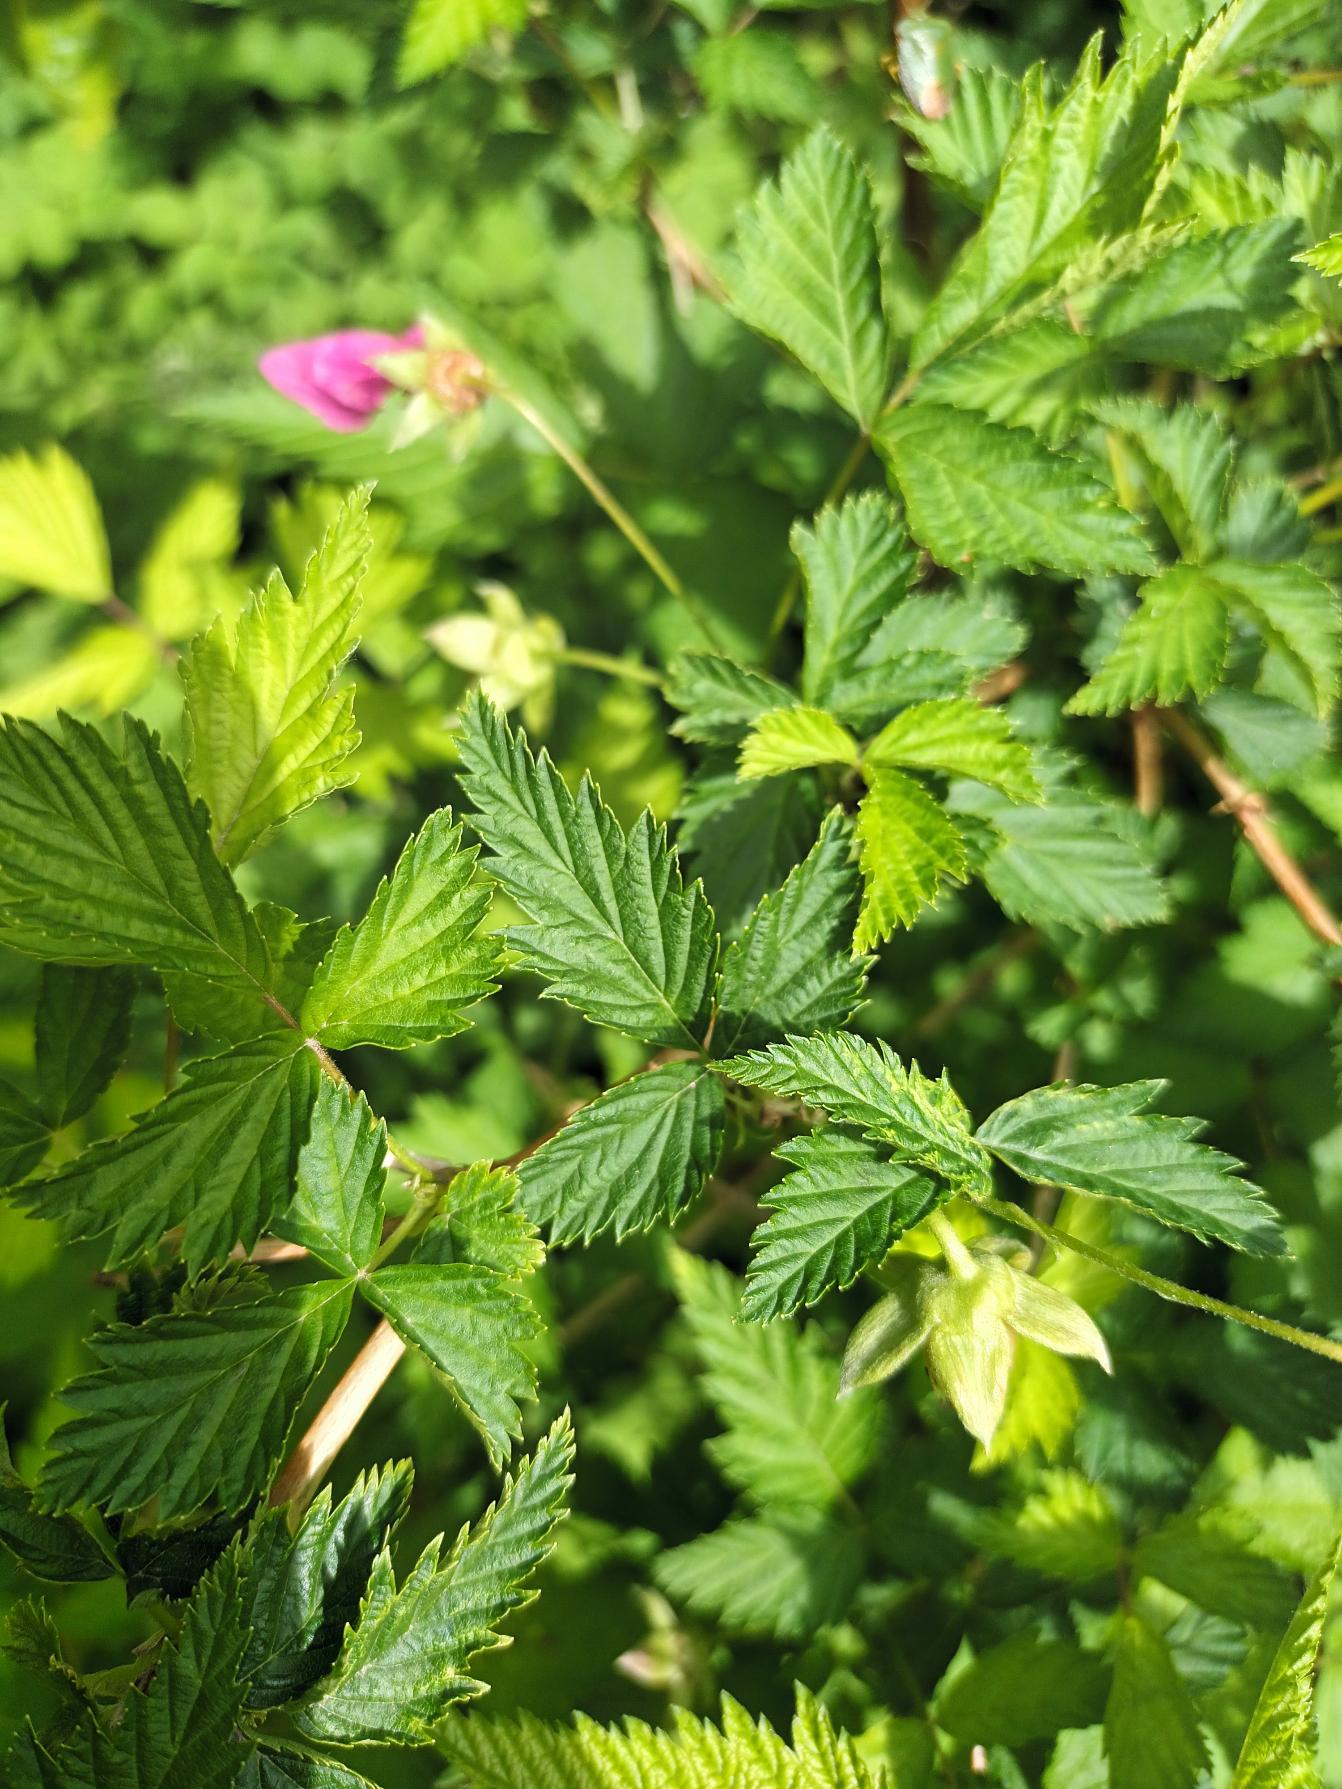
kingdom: Plantae
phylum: Tracheophyta
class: Magnoliopsida
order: Rosales
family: Rosaceae
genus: Rubus
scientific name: Rubus spectabilis
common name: Laksebær
